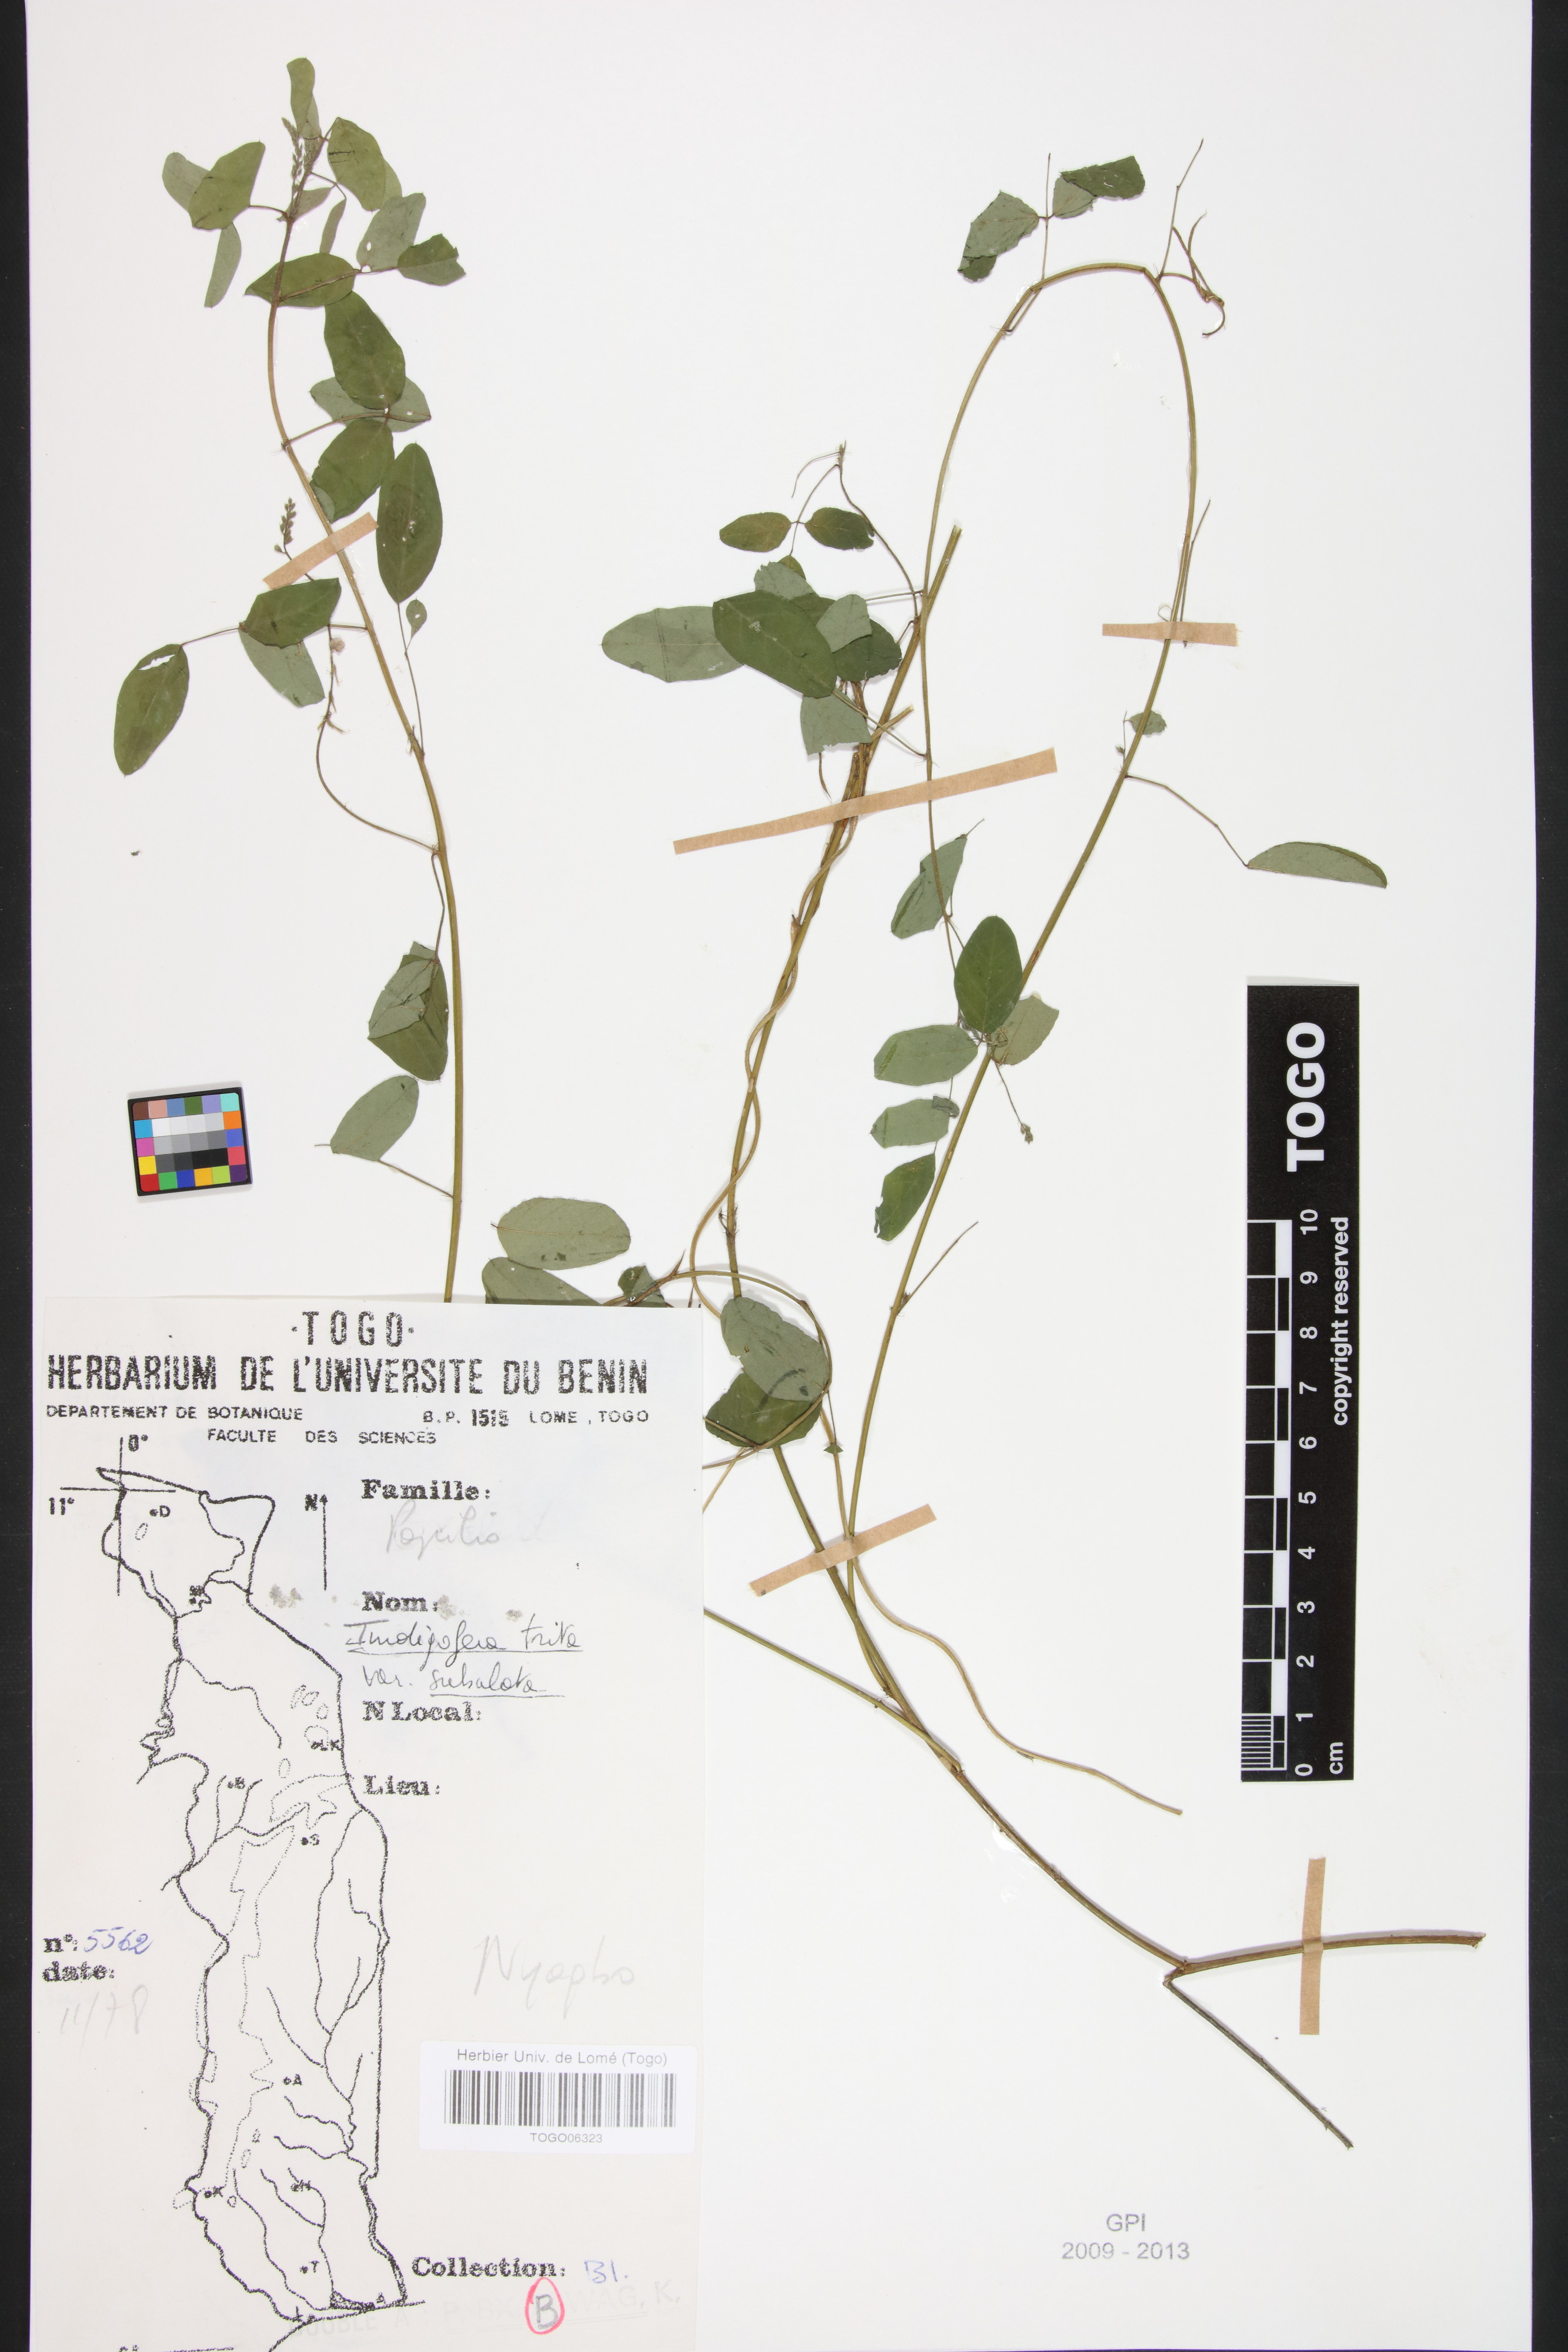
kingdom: Plantae
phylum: Tracheophyta
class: Magnoliopsida
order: Fabales
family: Fabaceae
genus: Indigofera
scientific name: Indigofera subulata
